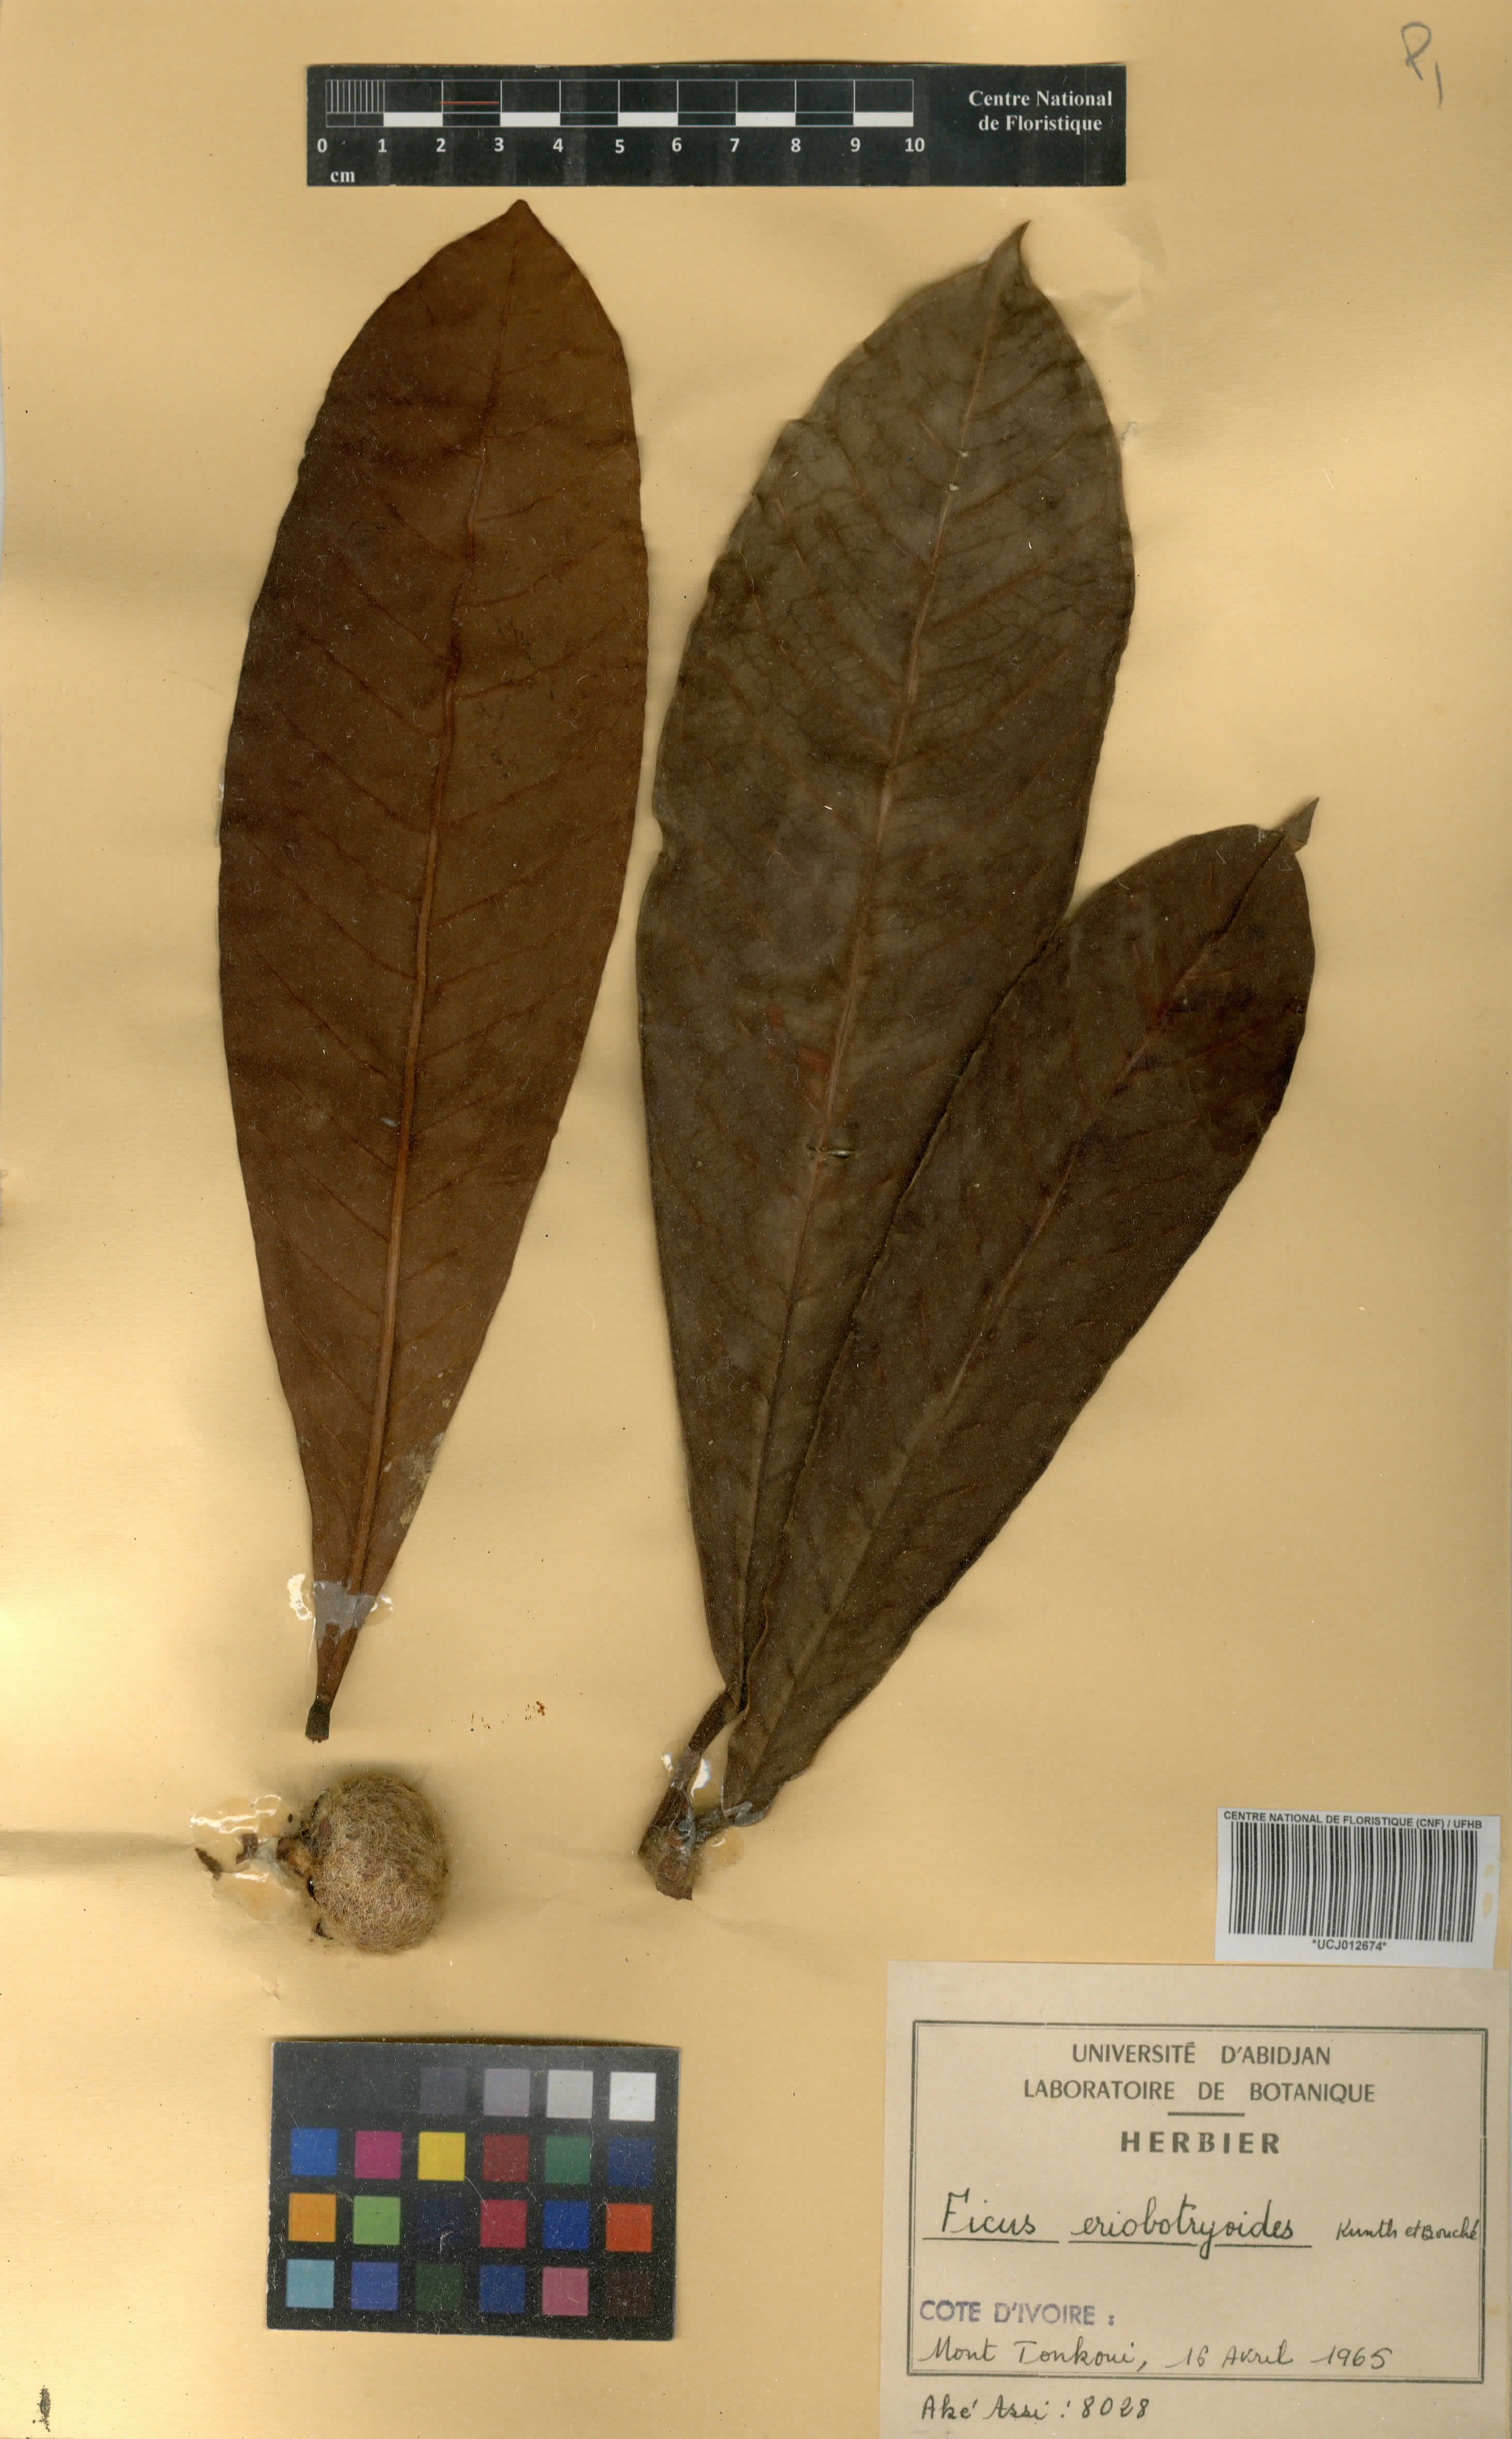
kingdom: Plantae
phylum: Tracheophyta
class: Magnoliopsida
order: Rosales
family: Moraceae
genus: Ficus
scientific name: Ficus
